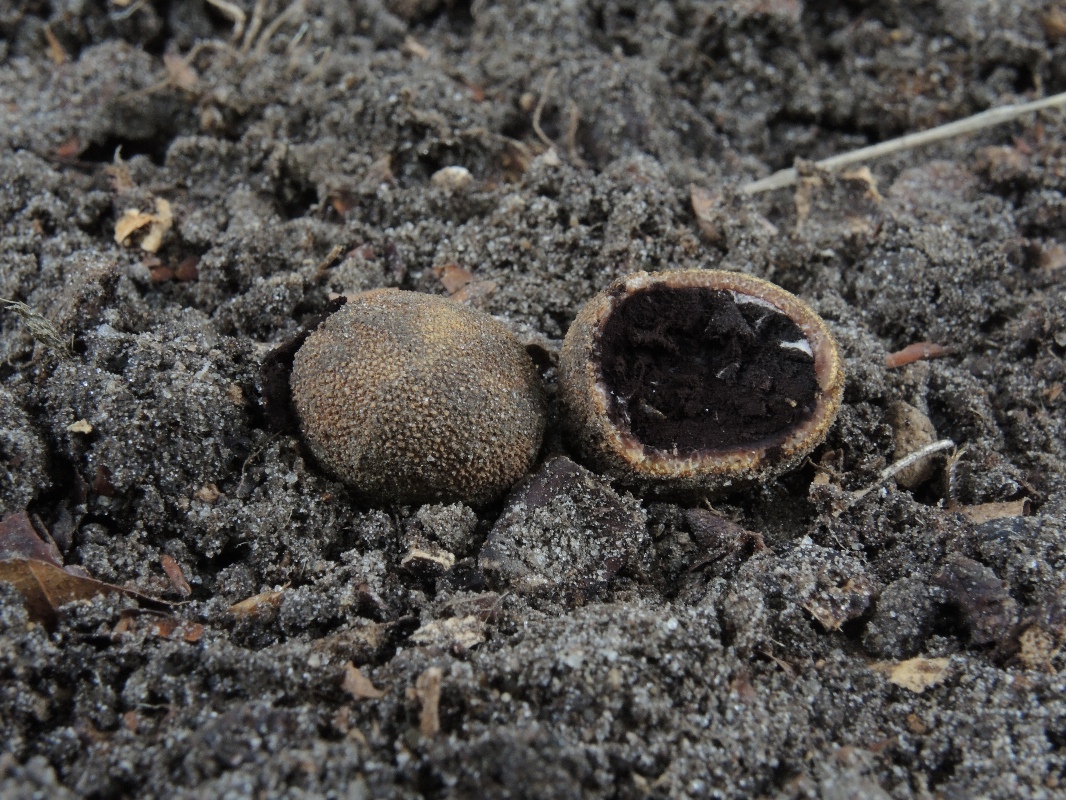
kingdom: Fungi
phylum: Ascomycota
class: Eurotiomycetes
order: Eurotiales
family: Elaphomycetaceae
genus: Elaphomyces
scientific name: Elaphomyces muricatus
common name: vortet hjortetrøffel
